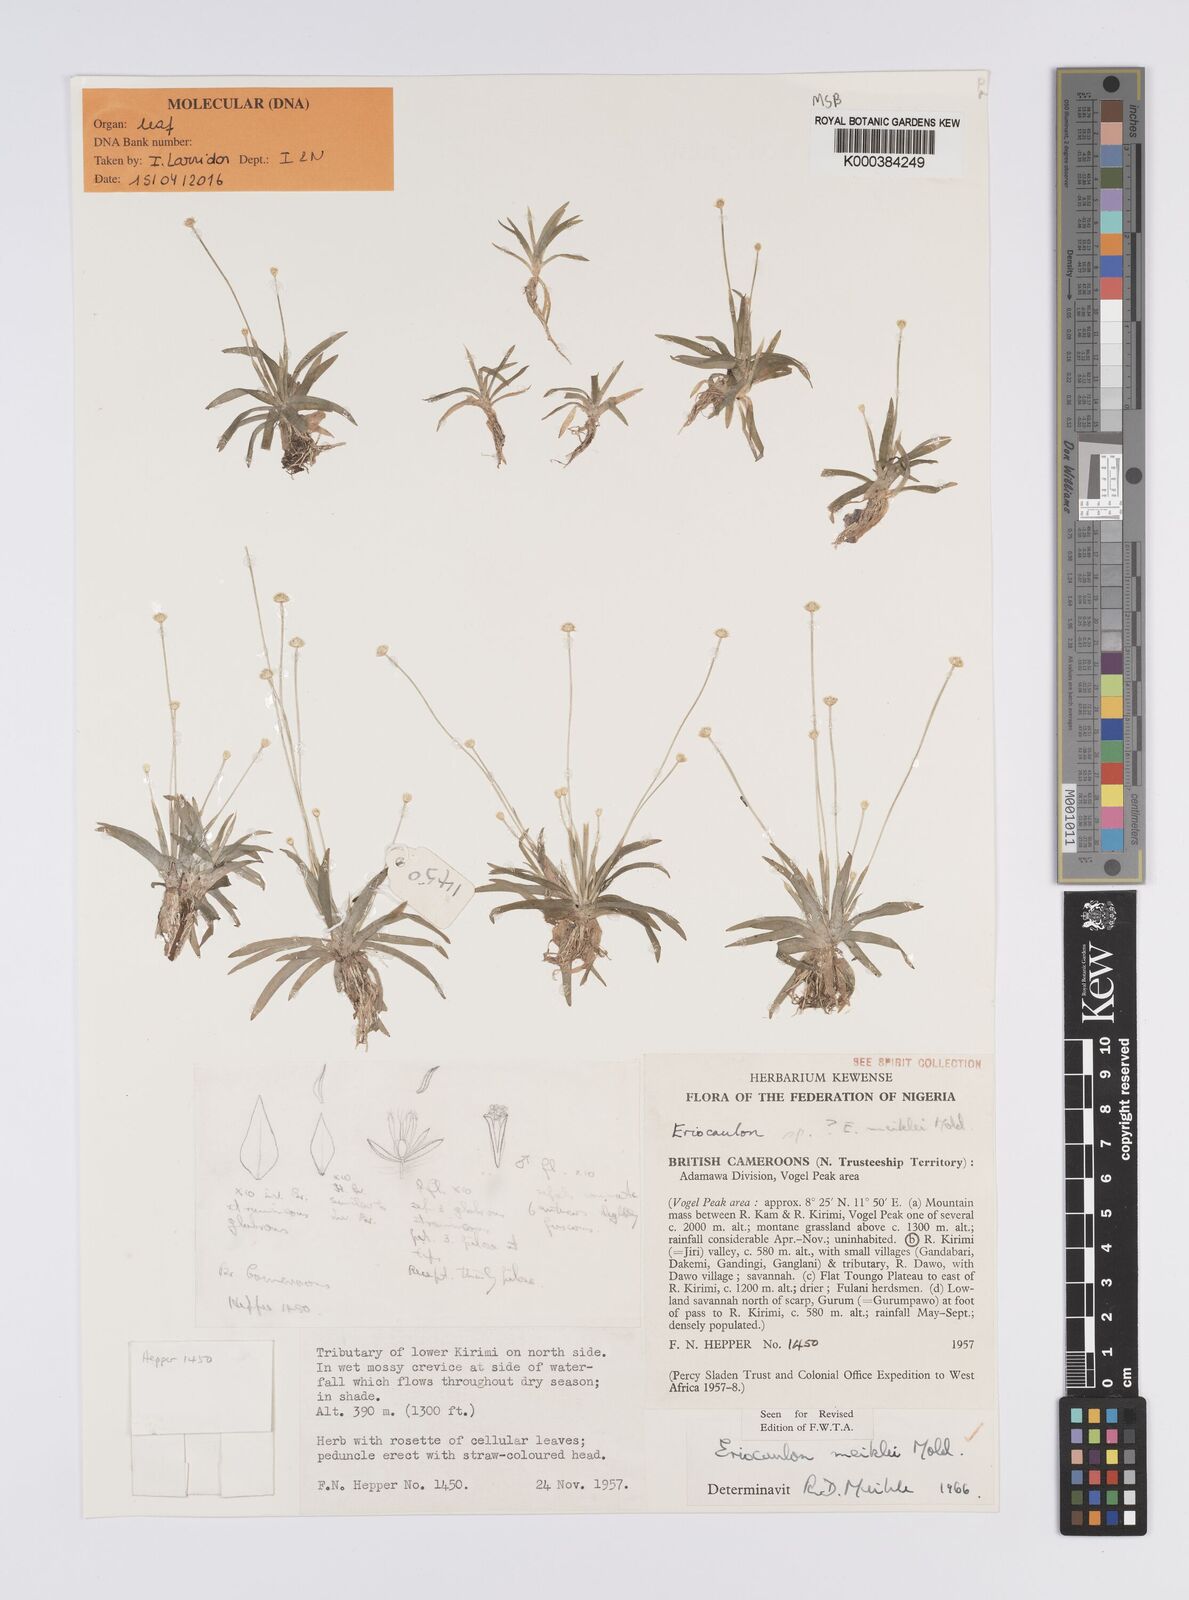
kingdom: Plantae
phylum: Tracheophyta
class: Liliopsida
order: Poales
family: Eriocaulaceae
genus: Eriocaulon
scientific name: Eriocaulon meiklei
